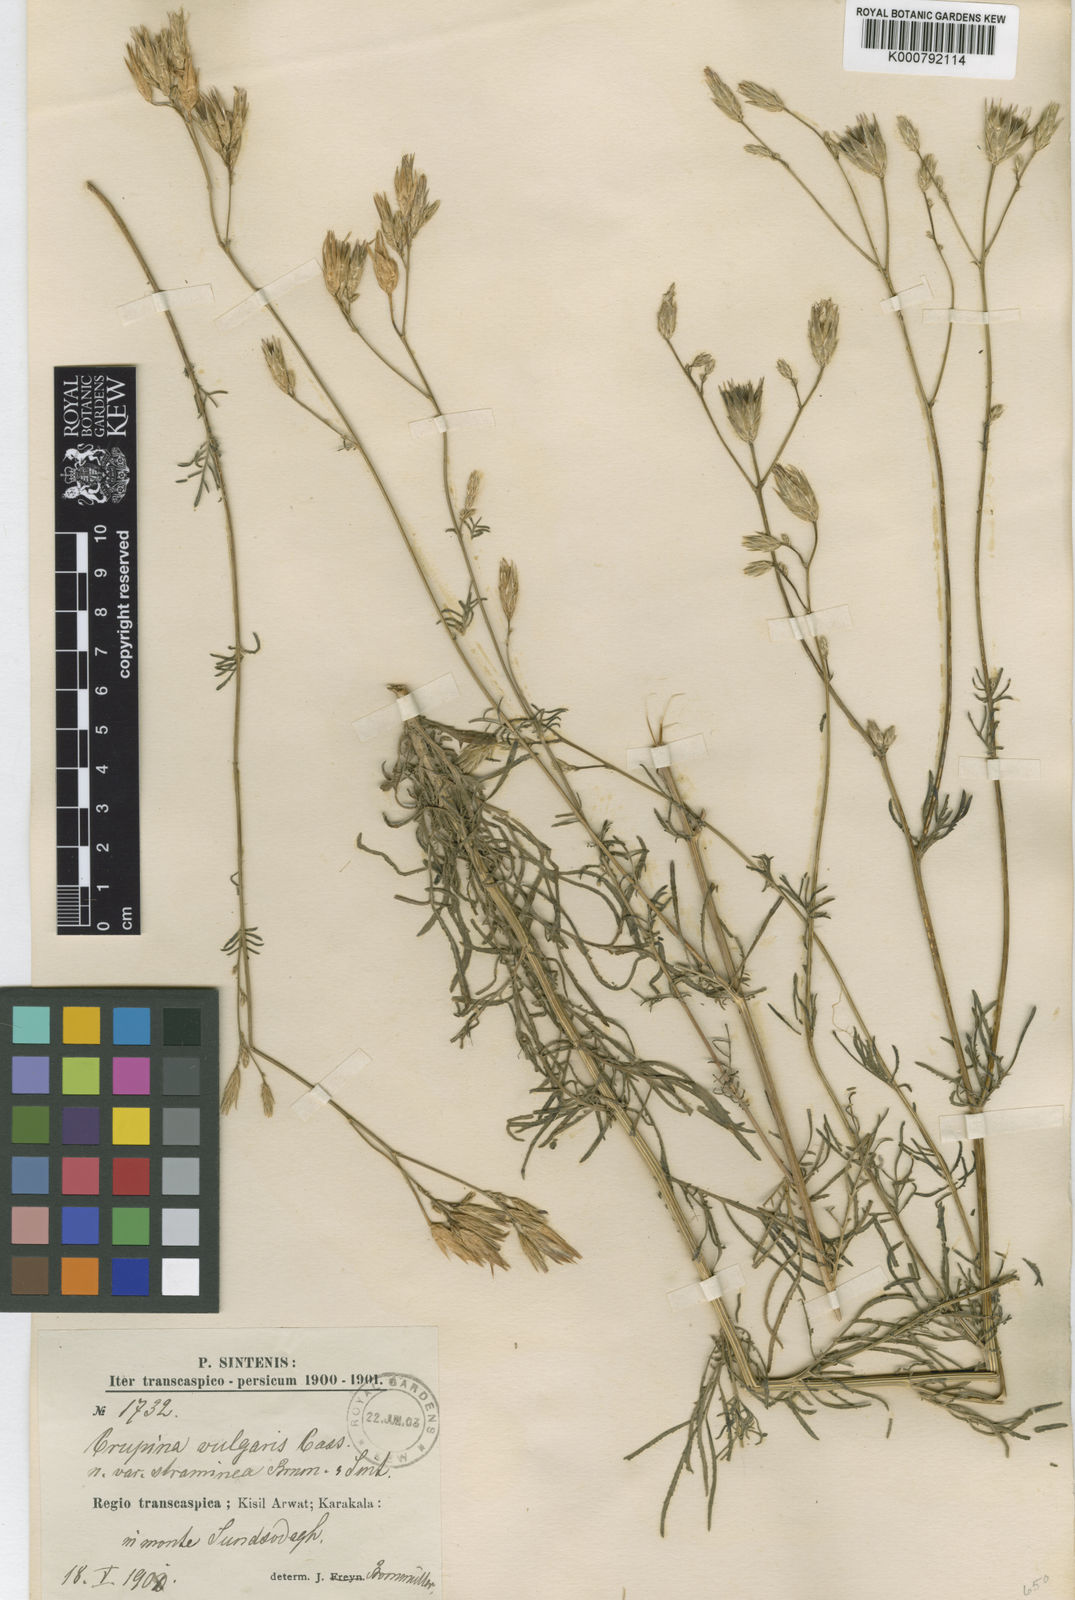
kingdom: Plantae
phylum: Tracheophyta
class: Magnoliopsida
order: Asterales
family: Asteraceae
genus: Crupina
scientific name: Crupina vulgaris
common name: Common crupina
